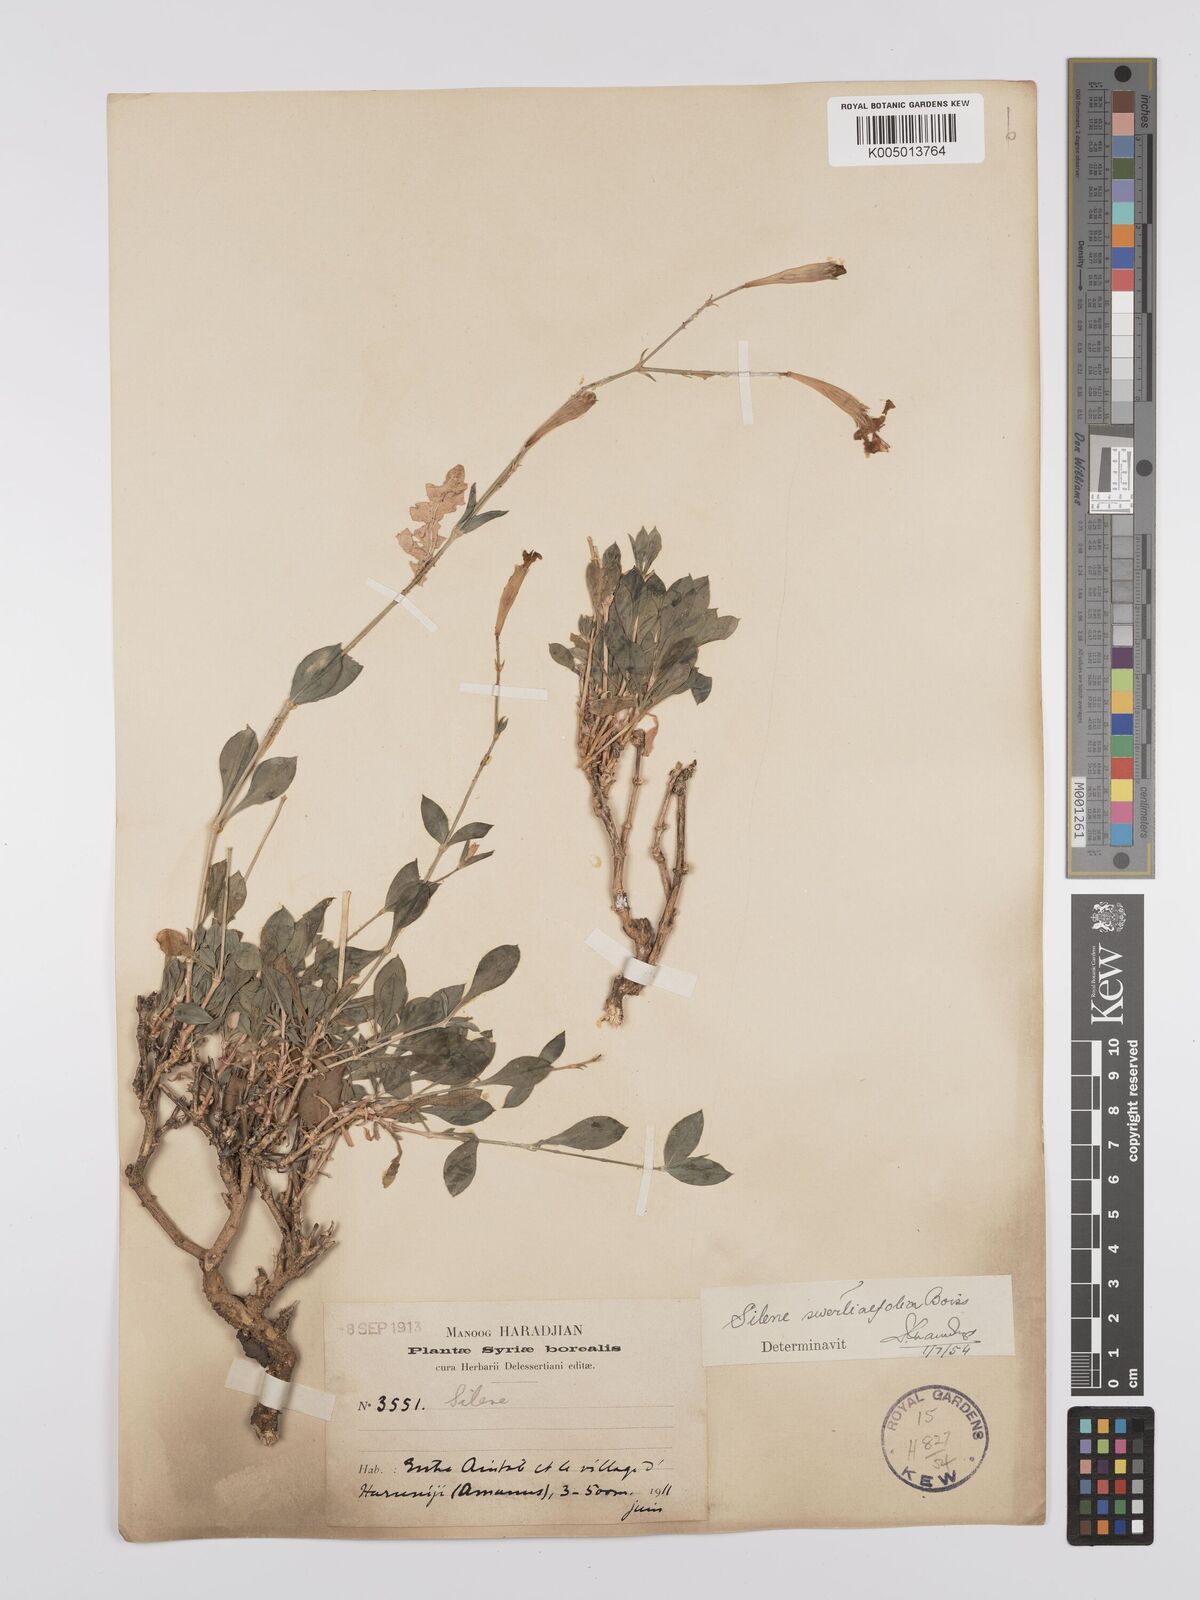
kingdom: Plantae
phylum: Tracheophyta
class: Magnoliopsida
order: Caryophyllales
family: Caryophyllaceae
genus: Silene
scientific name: Silene swertiifolia
